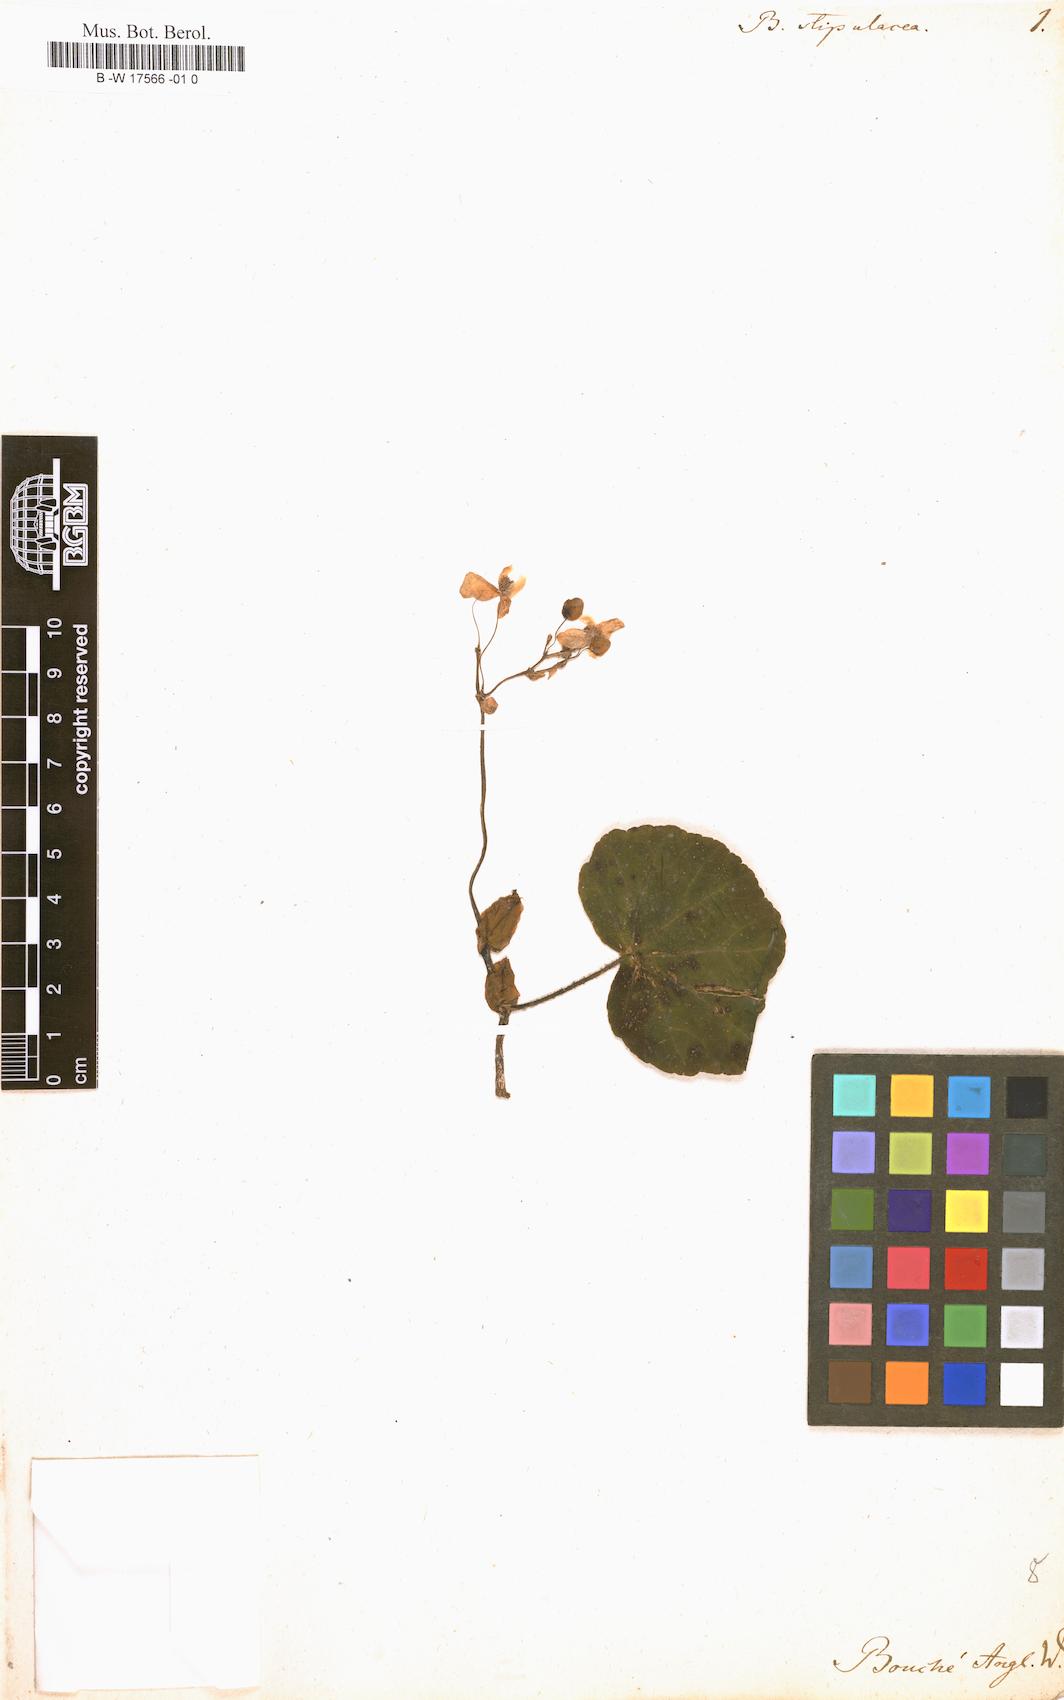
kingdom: Plantae
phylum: Tracheophyta
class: Magnoliopsida
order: Cucurbitales
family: Begoniaceae
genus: Begonia
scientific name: Begonia stipularis
